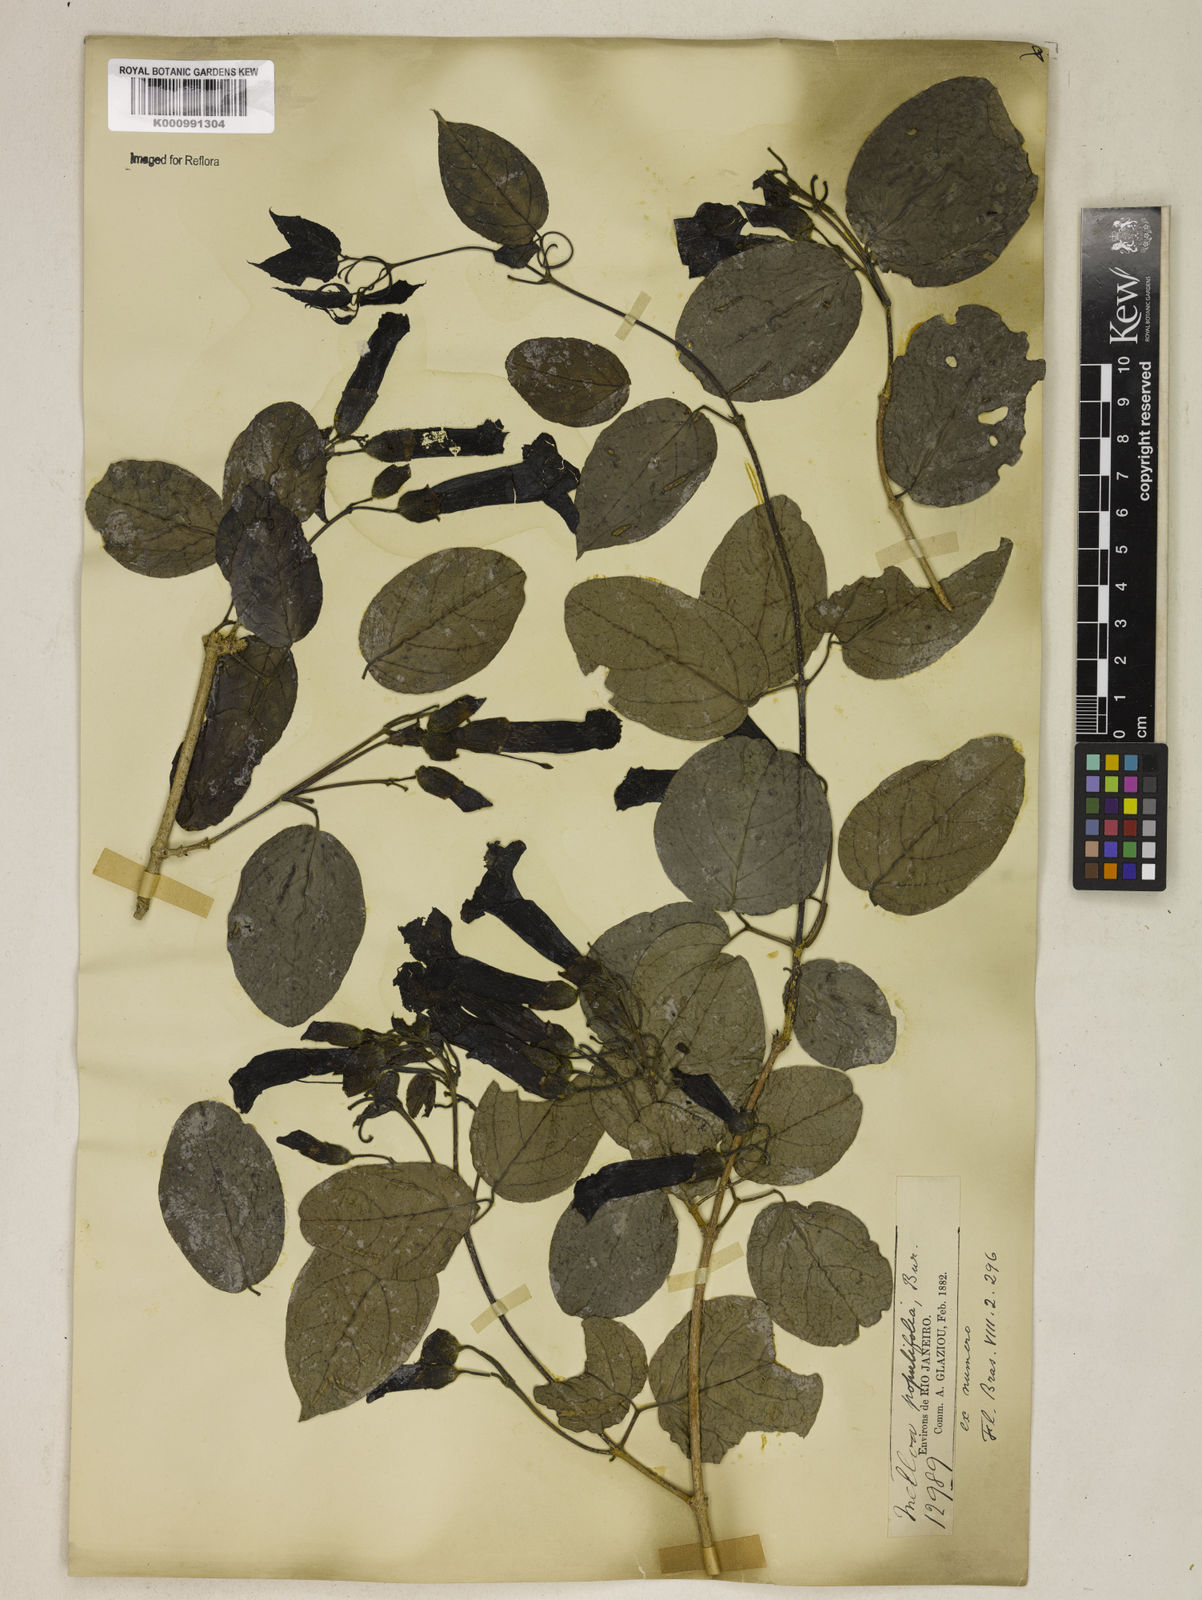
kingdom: Plantae
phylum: Tracheophyta
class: Magnoliopsida
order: Lamiales
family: Bignoniaceae
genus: Dolichandra
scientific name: Dolichandra quadrivalvis
